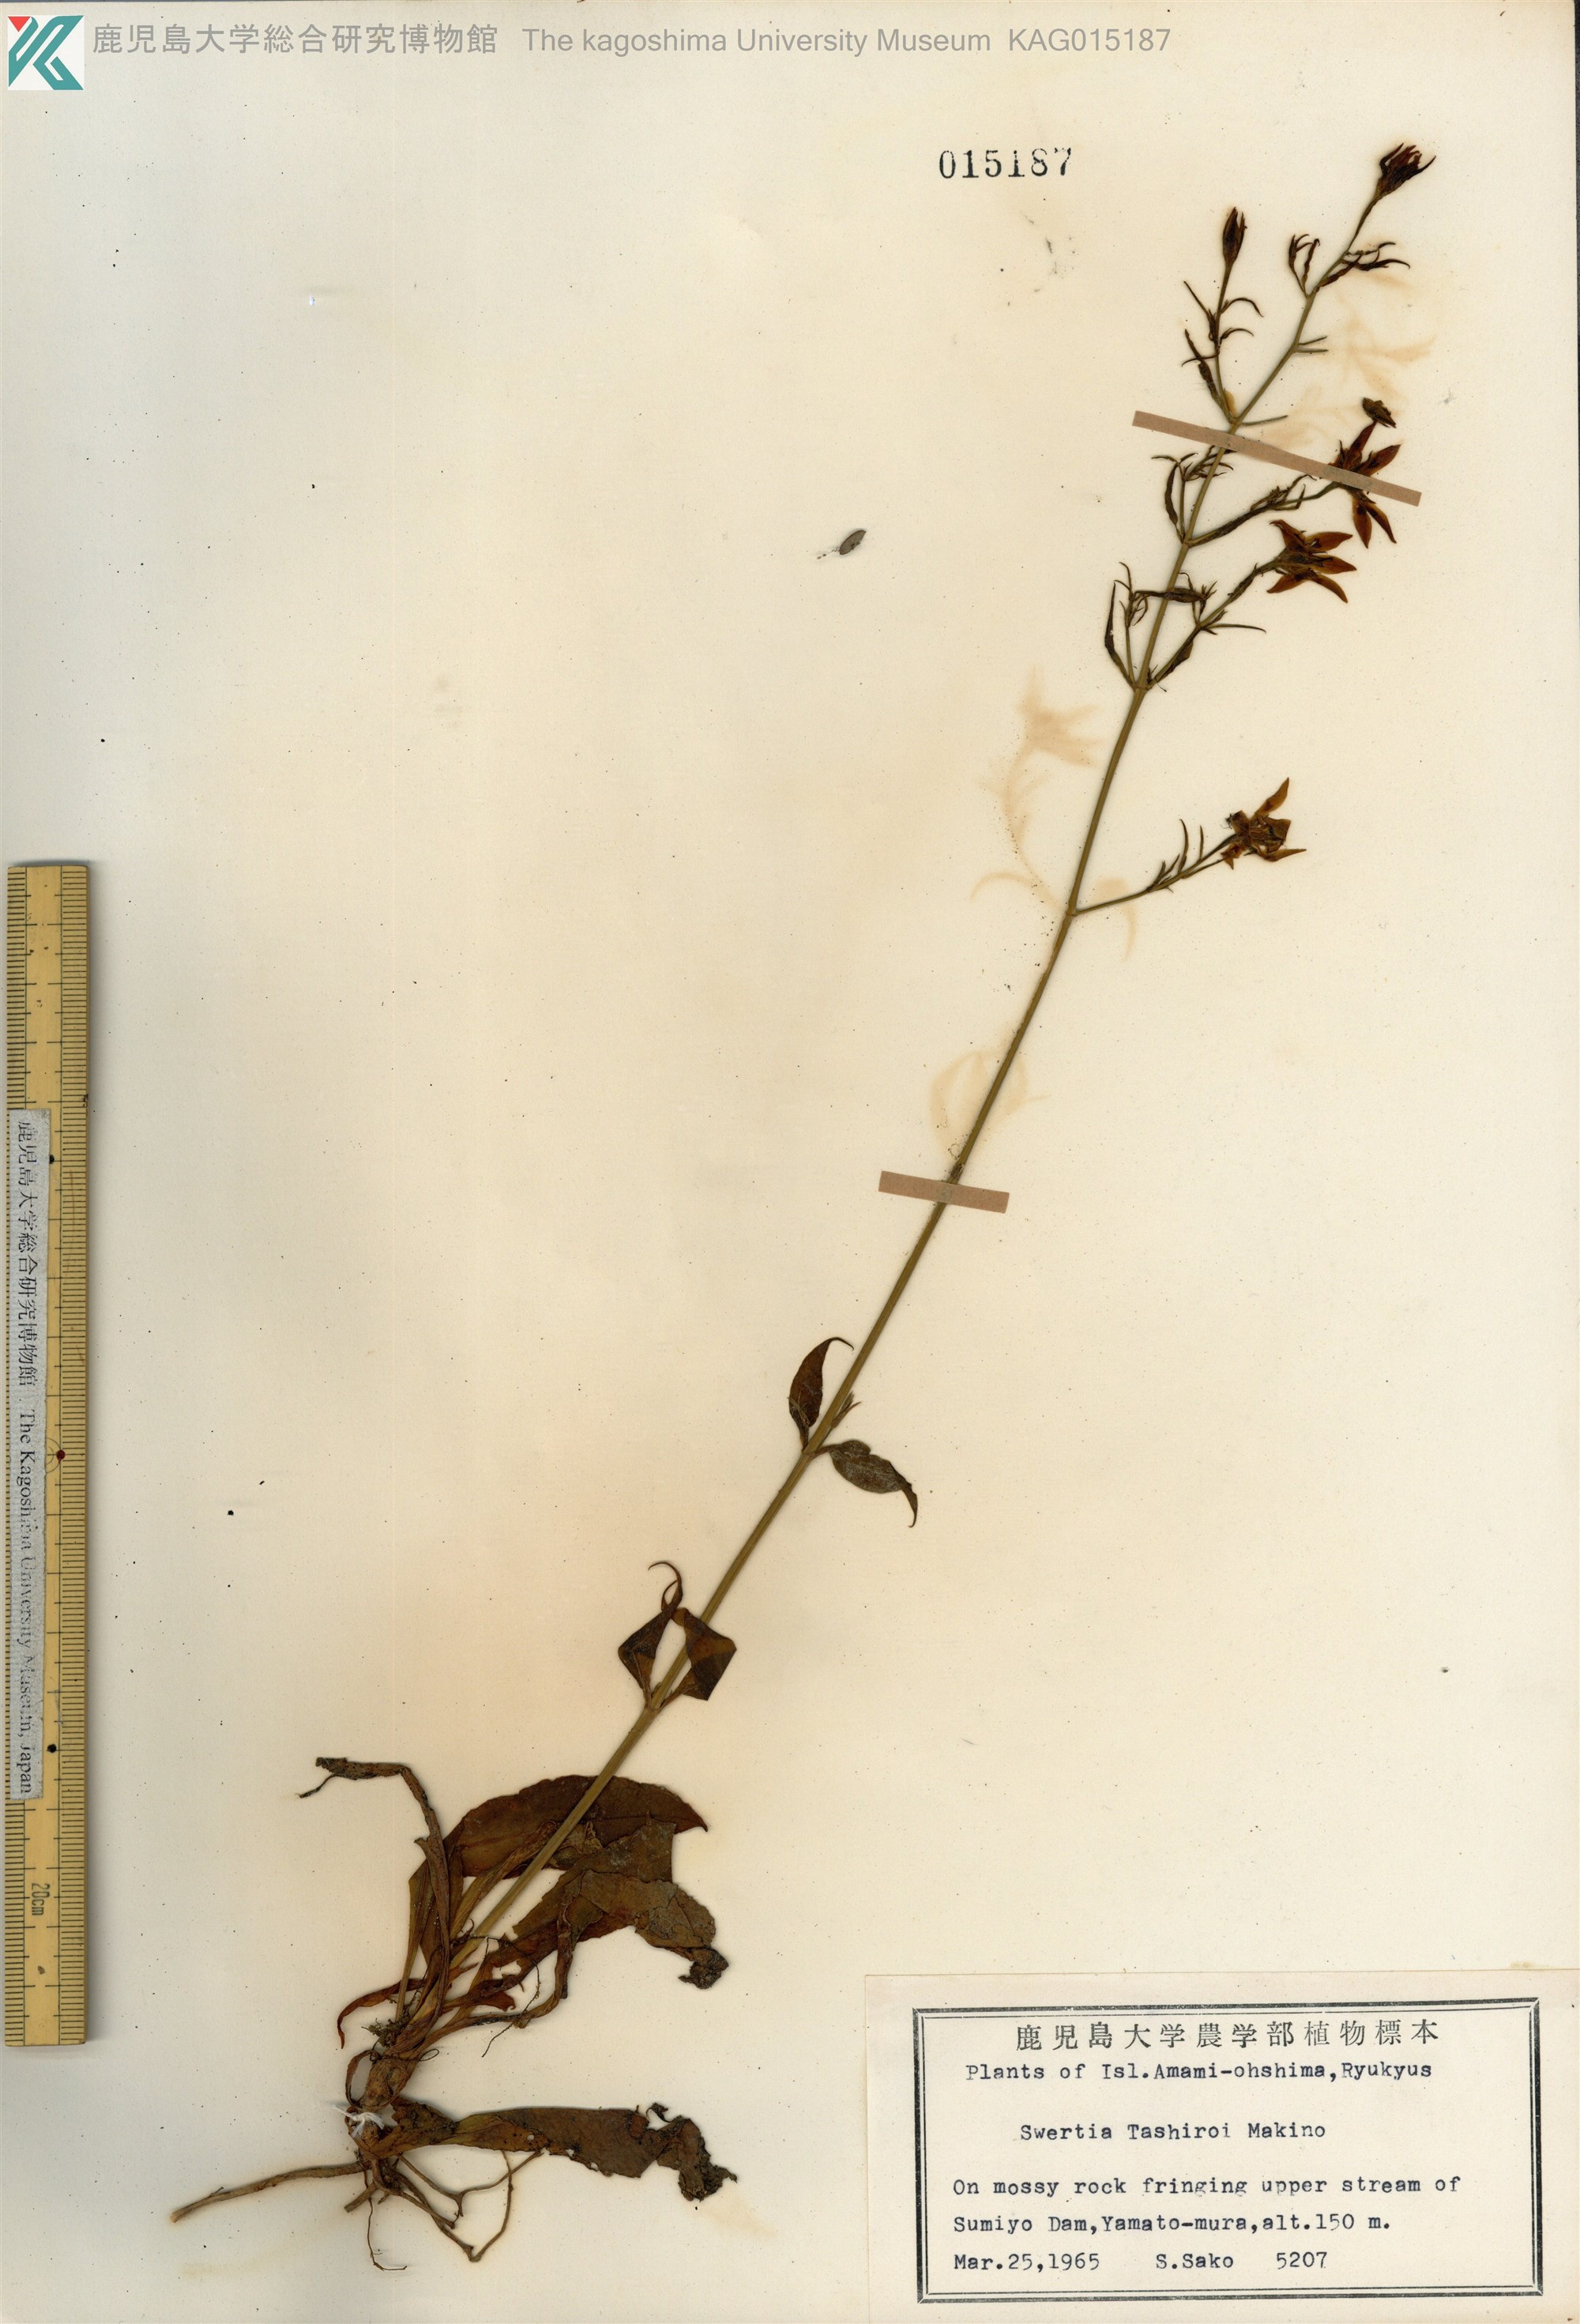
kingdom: Plantae
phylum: Tracheophyta
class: Magnoliopsida
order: Gentianales
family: Gentianaceae
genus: Swertia
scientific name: Swertia tashiroi
